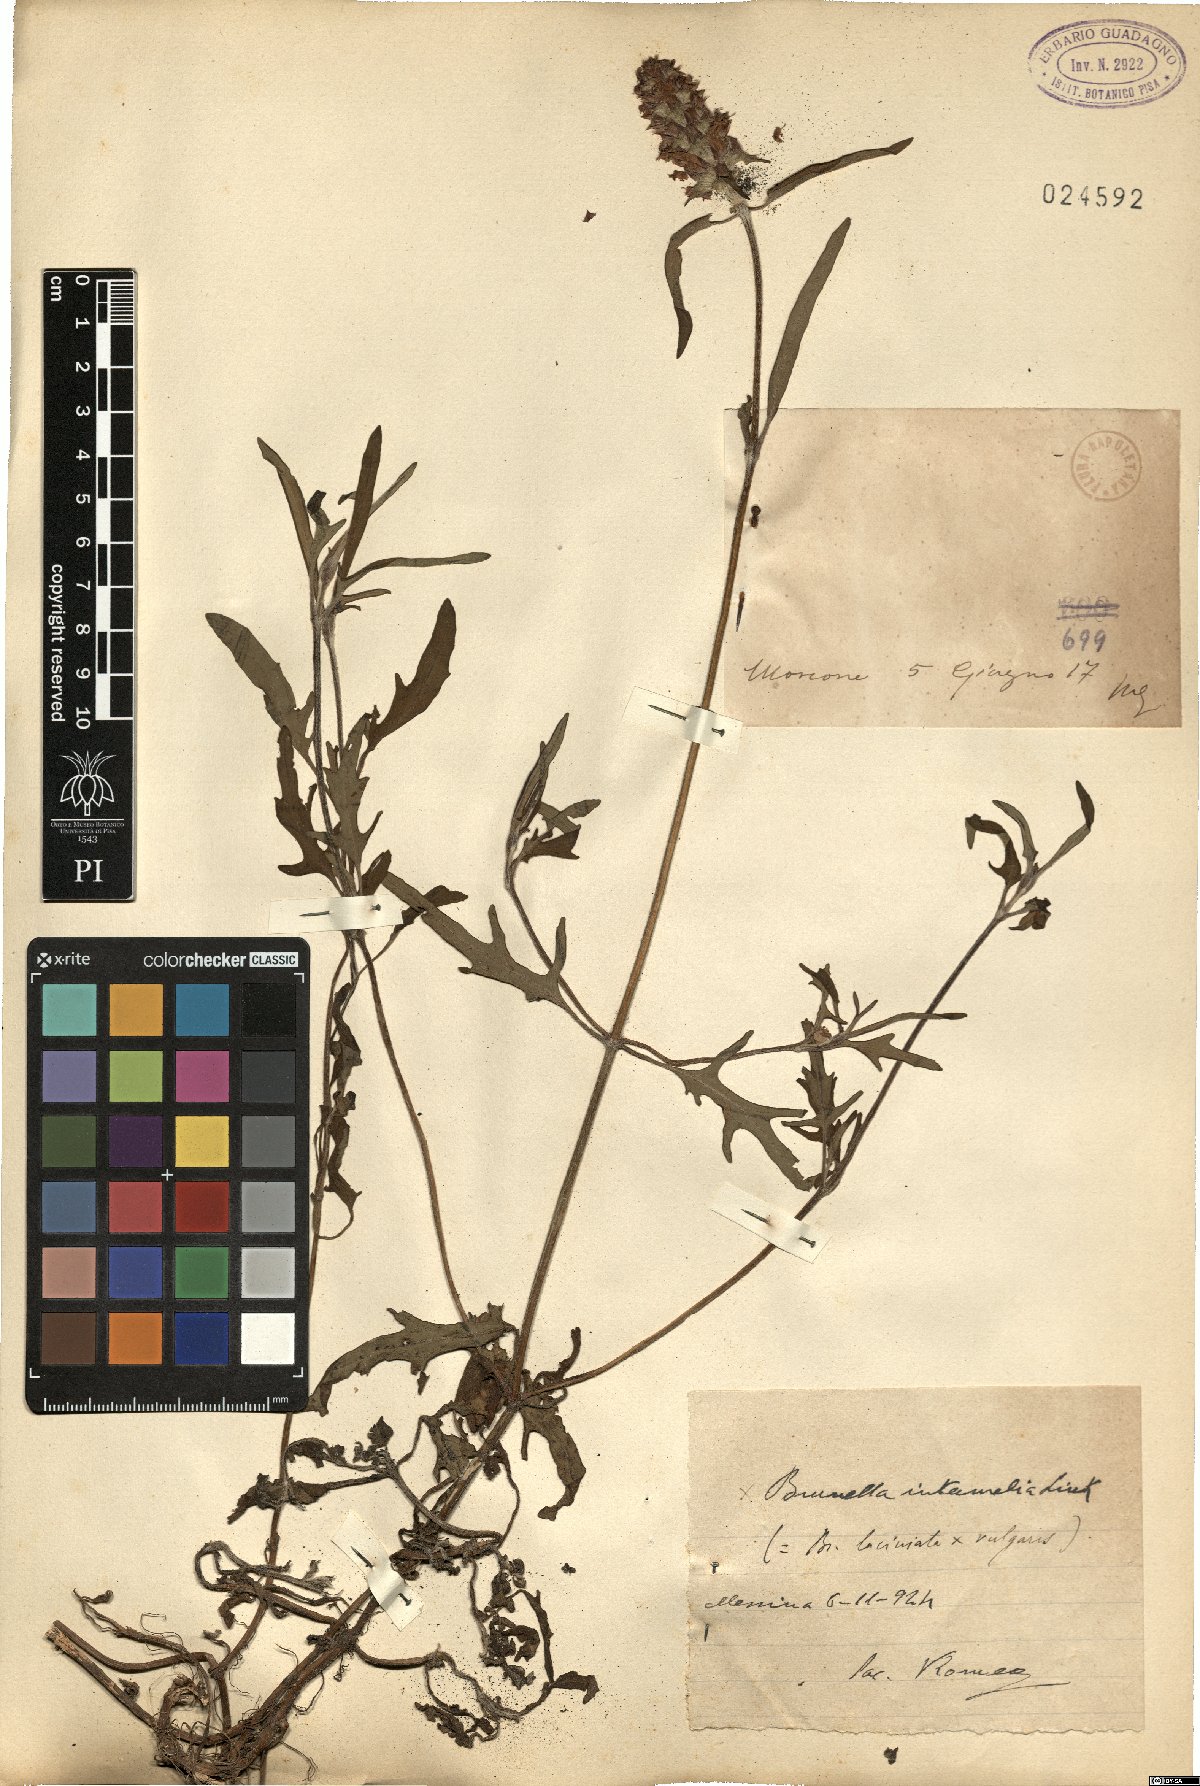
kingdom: Plantae
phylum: Tracheophyta
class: Magnoliopsida
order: Lamiales
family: Lamiaceae
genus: Prunella
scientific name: Prunella intermedia
